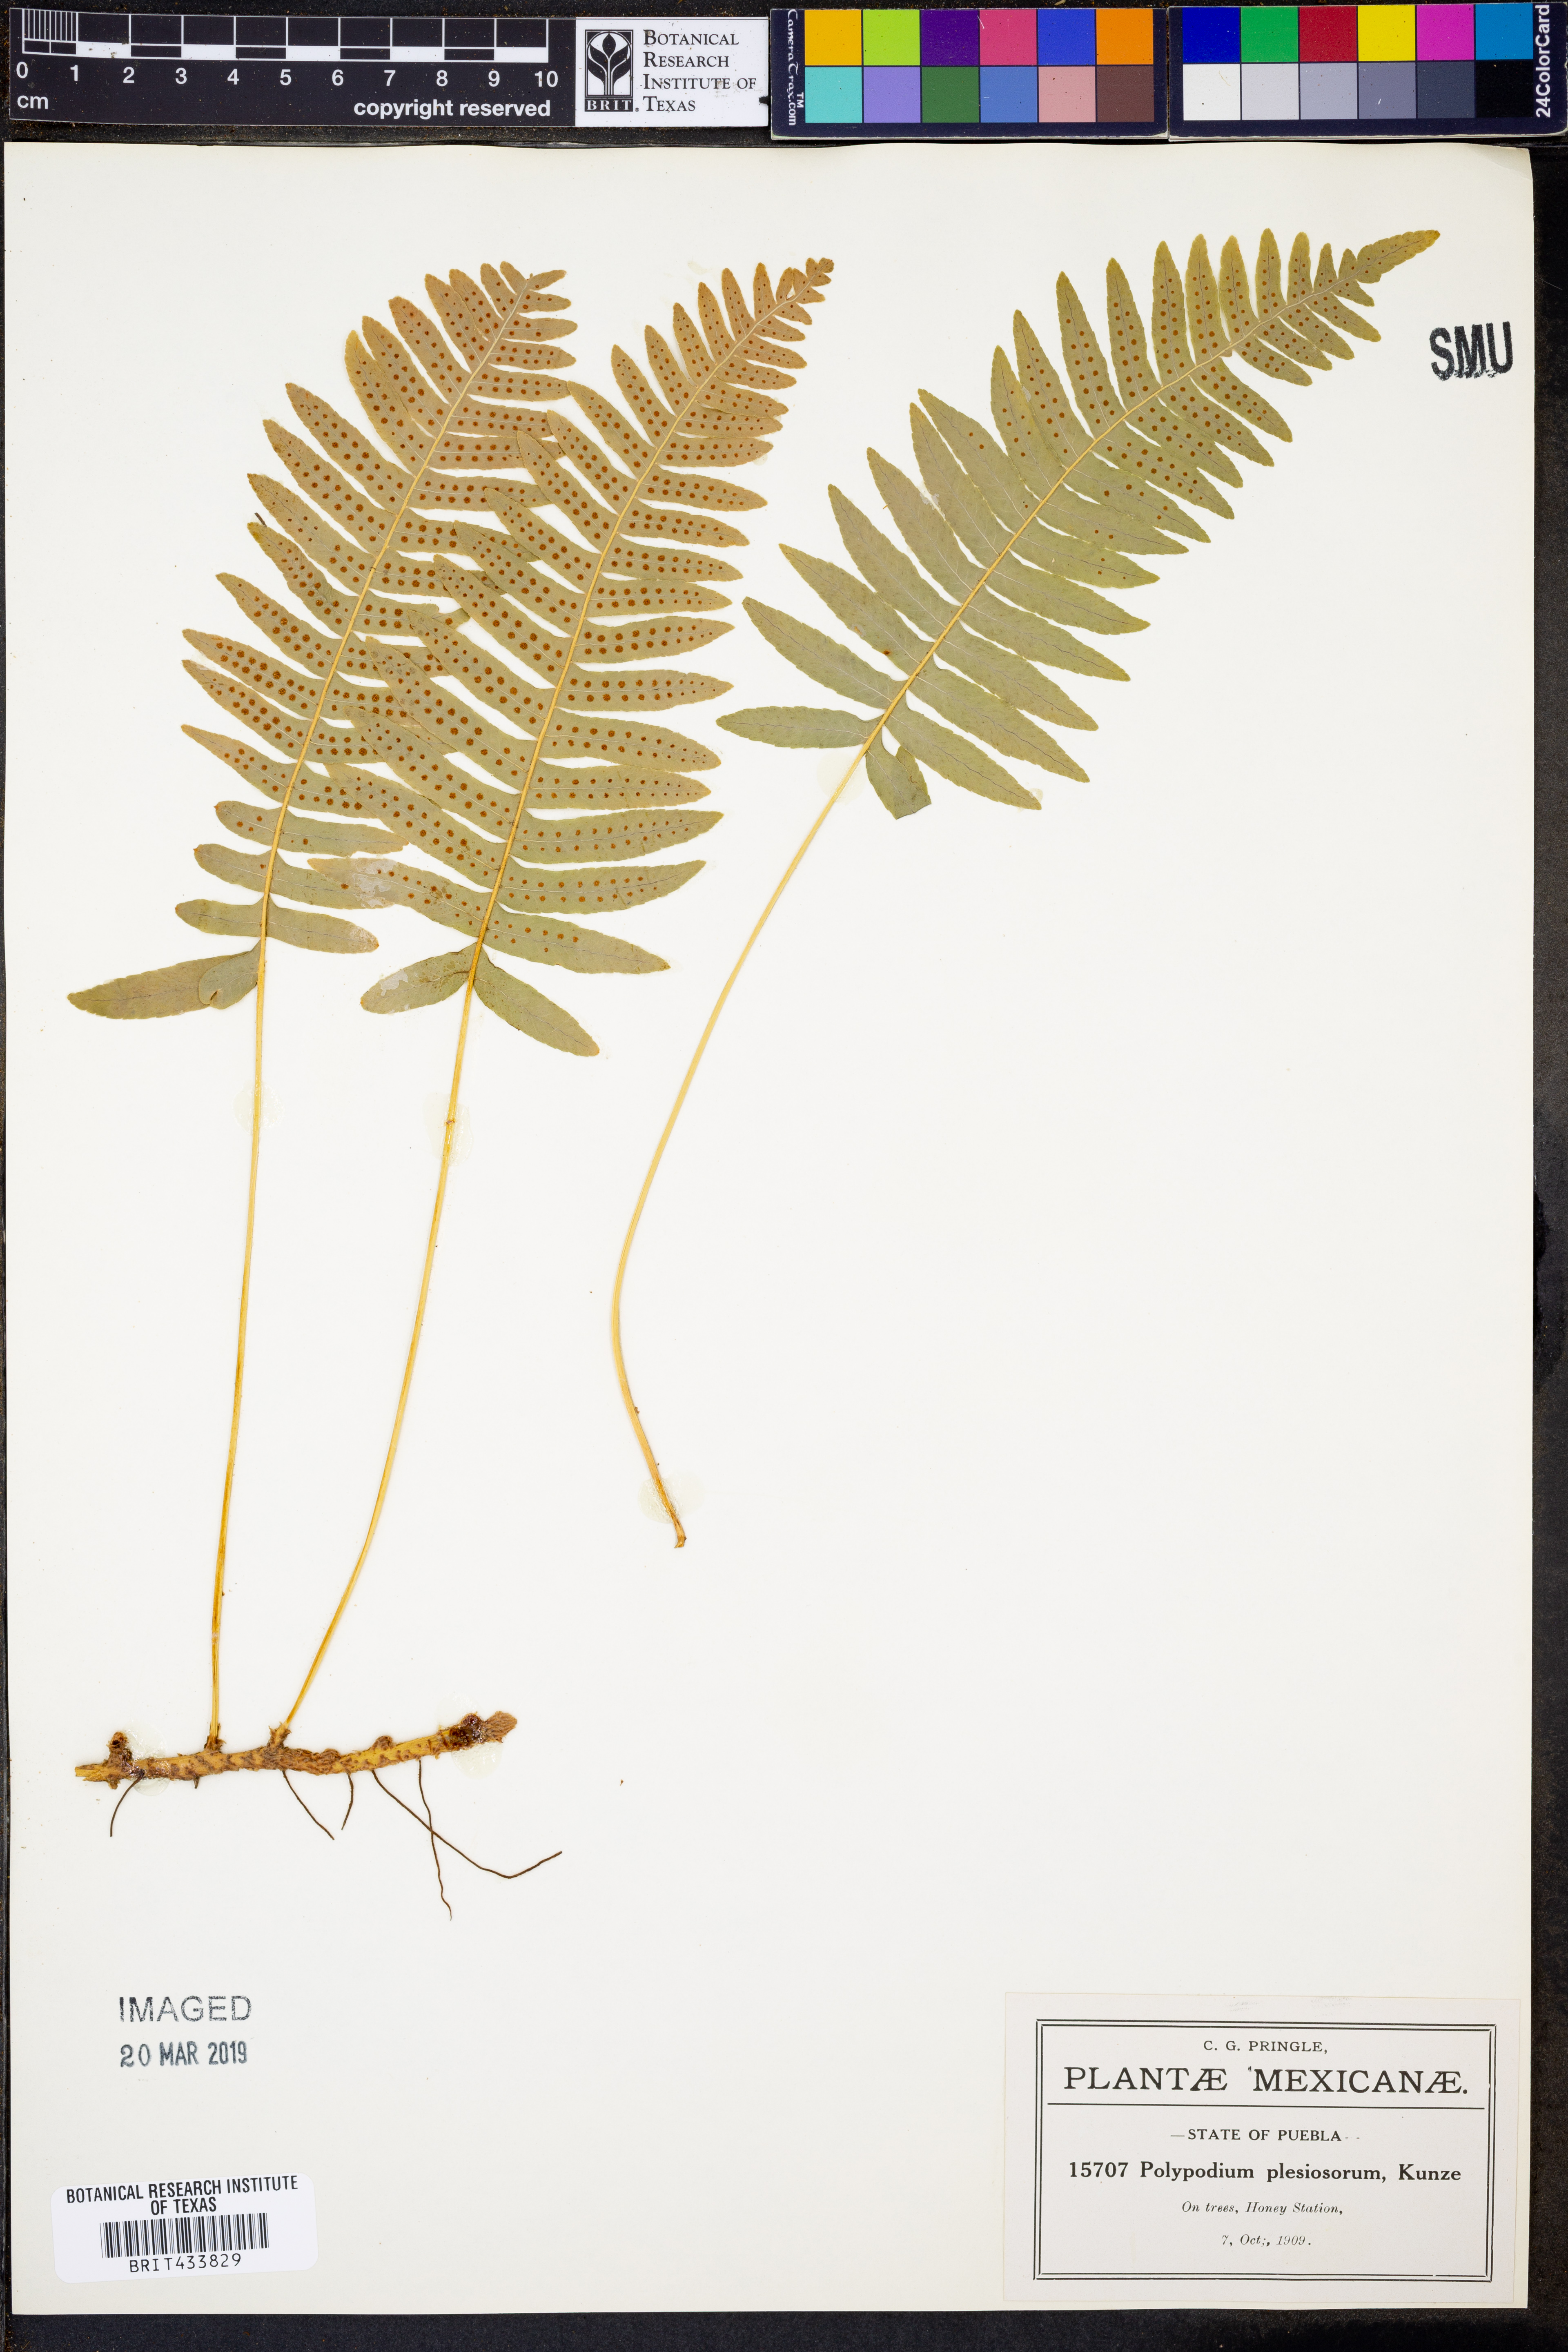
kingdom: Plantae
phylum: Tracheophyta
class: Polypodiopsida
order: Polypodiales
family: Polypodiaceae
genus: Polypodium
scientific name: Polypodium plesiosorum
